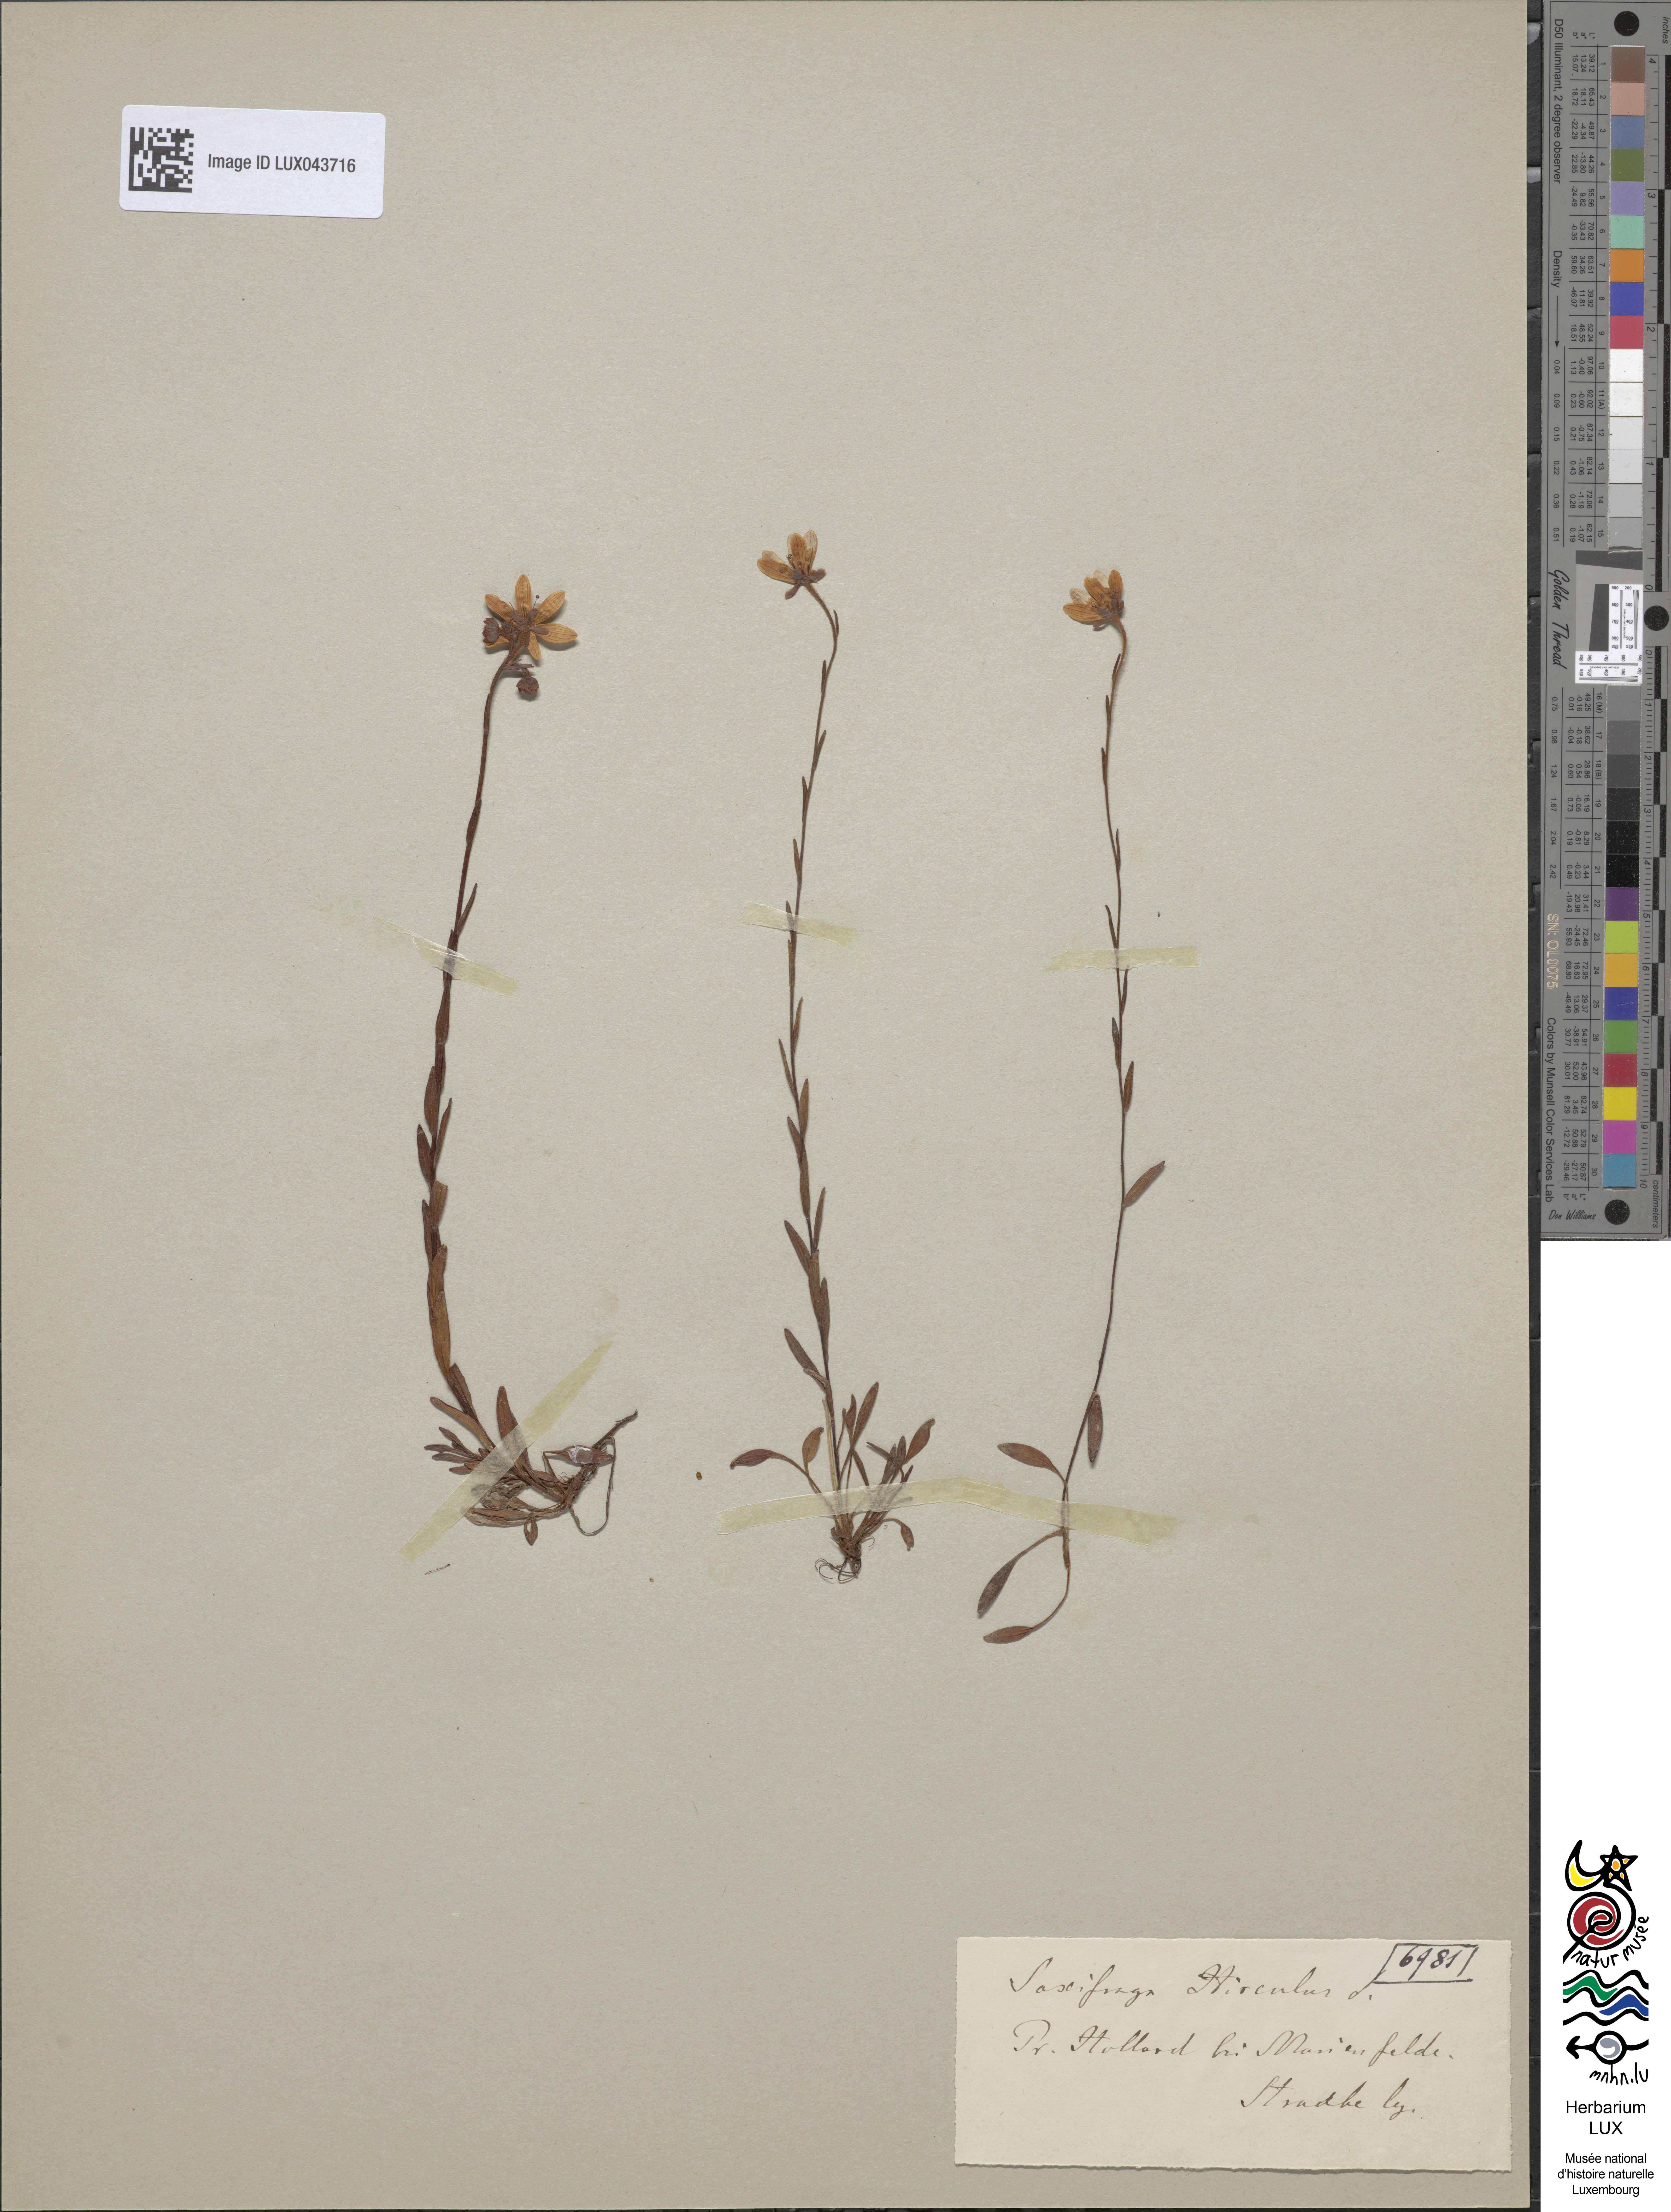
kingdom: Plantae
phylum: Tracheophyta
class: Magnoliopsida
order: Saxifragales
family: Saxifragaceae
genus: Saxifraga
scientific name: Saxifraga hirculus
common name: Yellow marsh saxifrage
